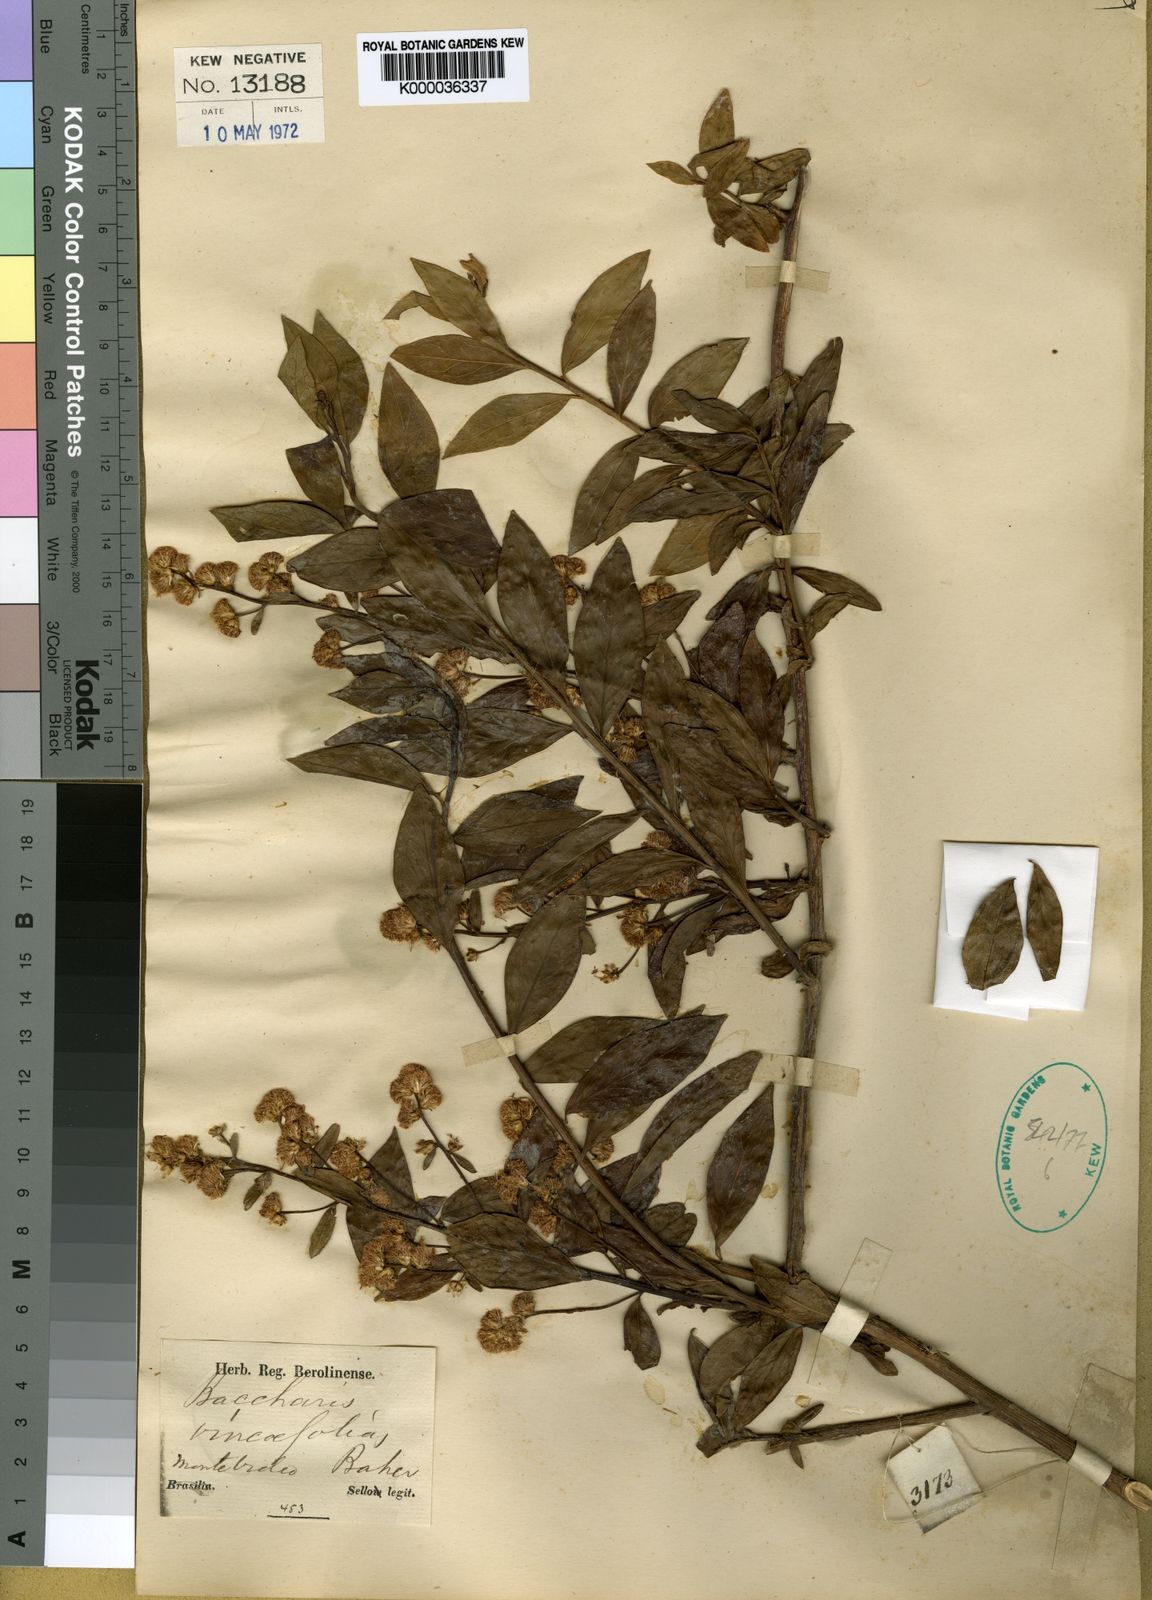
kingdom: Plantae
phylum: Tracheophyta
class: Magnoliopsida
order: Asterales
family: Asteraceae
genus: Baccharis
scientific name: Baccharis vincifolia
